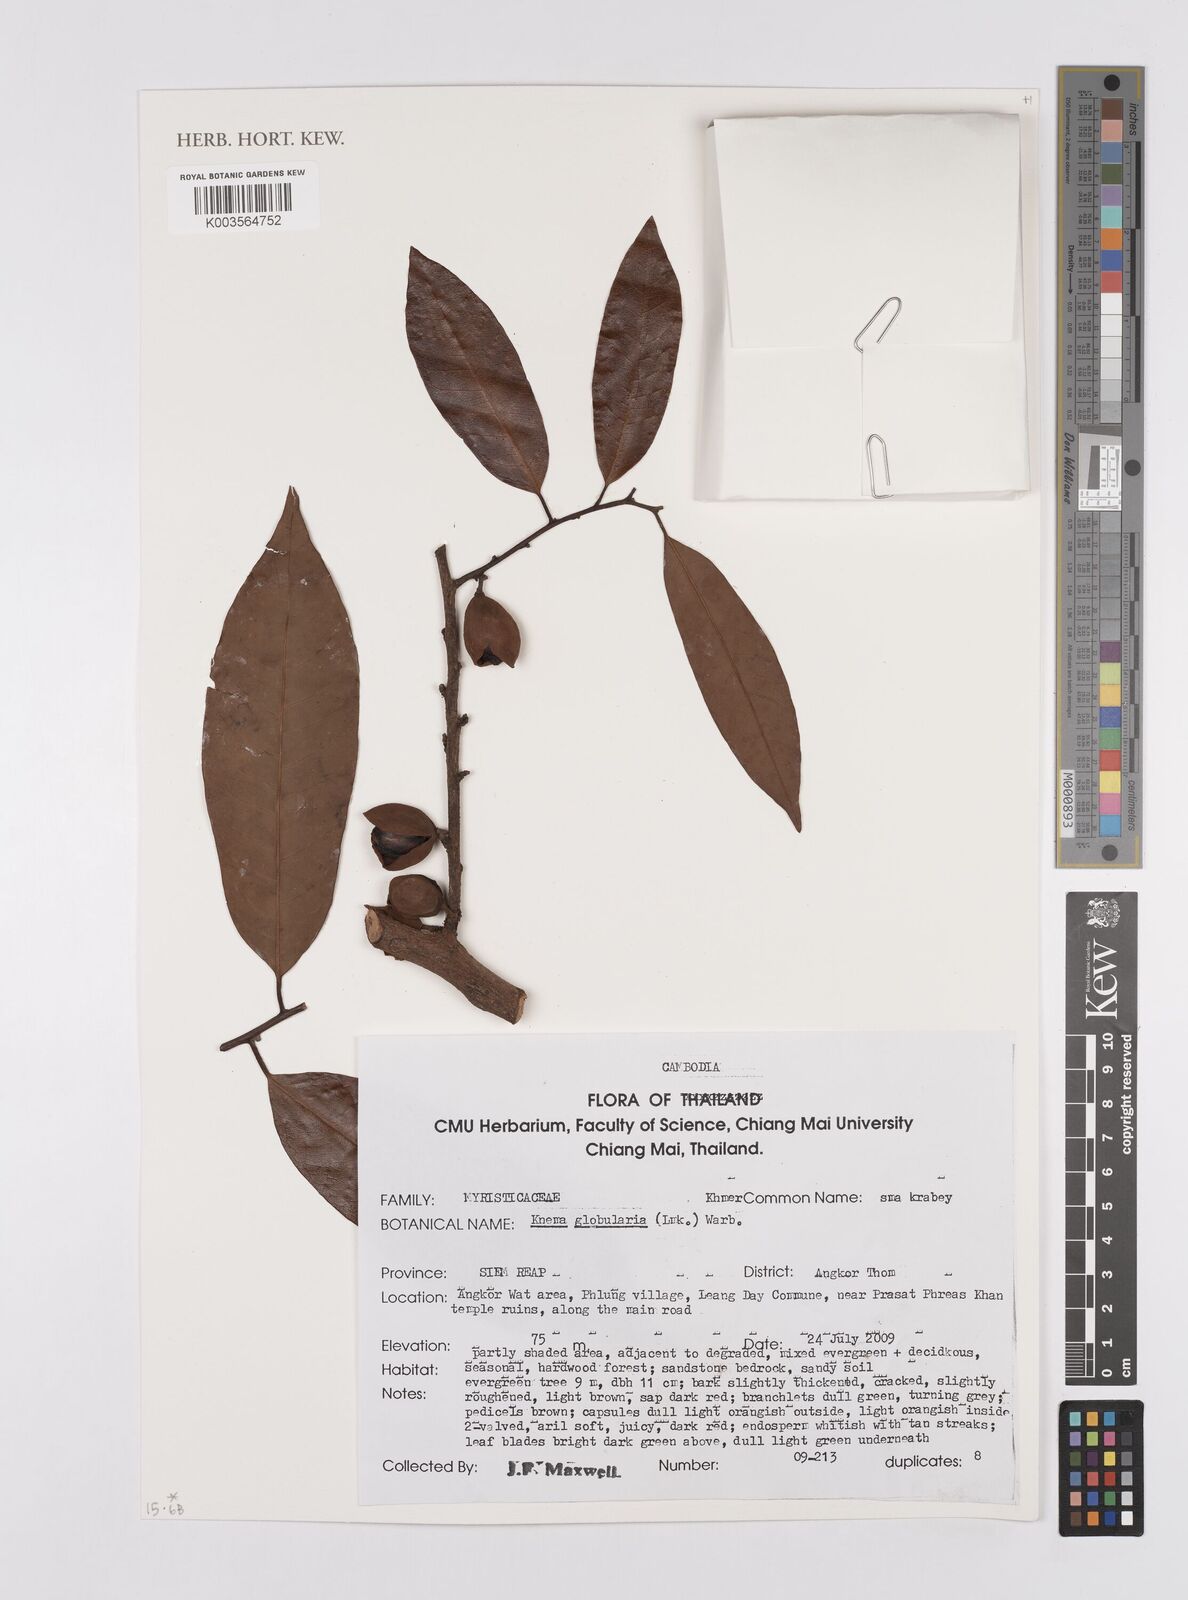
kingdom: Plantae
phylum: Tracheophyta
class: Magnoliopsida
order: Magnoliales
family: Myristicaceae
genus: Knema
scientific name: Knema globularia
